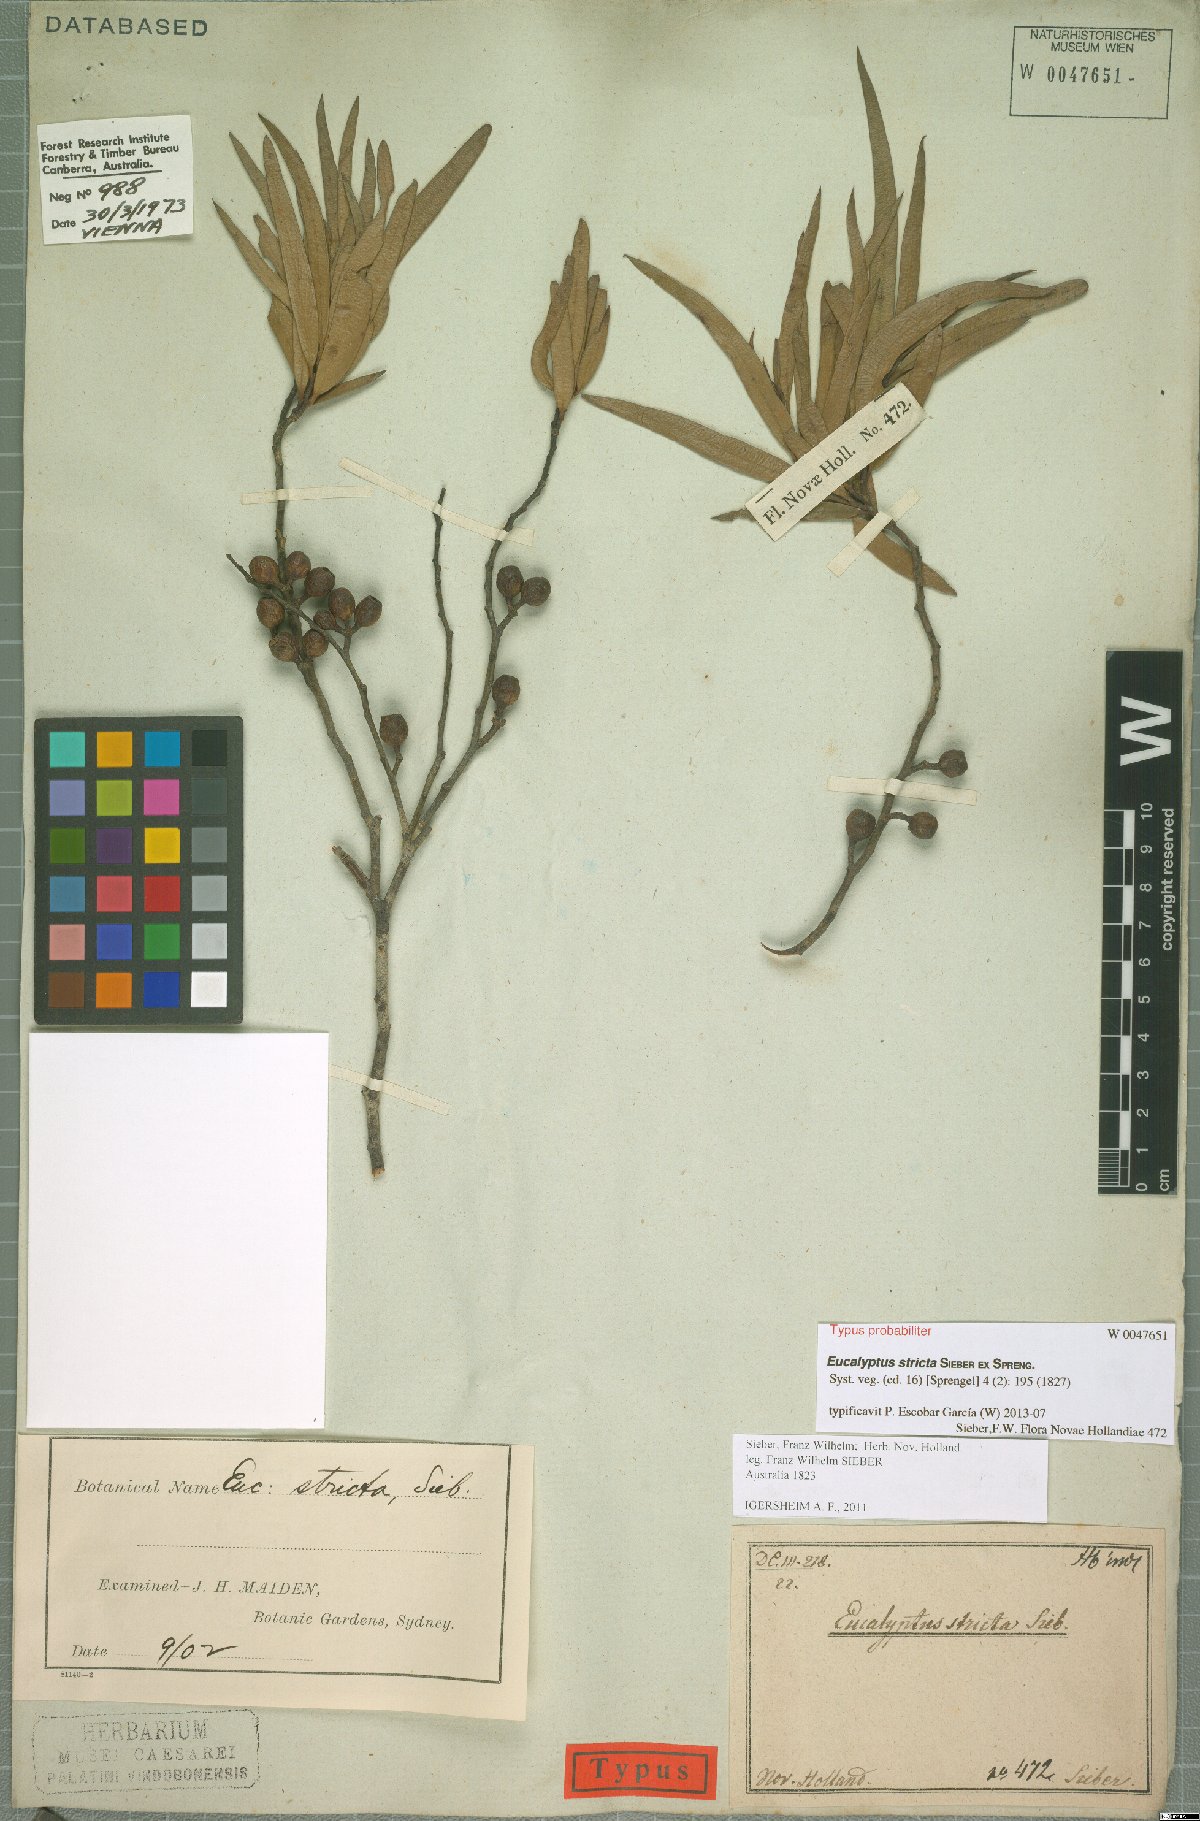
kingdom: Plantae
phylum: Tracheophyta
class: Magnoliopsida
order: Myrtales
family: Myrtaceae
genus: Eucalyptus
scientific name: Eucalyptus stricta
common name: Blue-mountain-malle-ash
